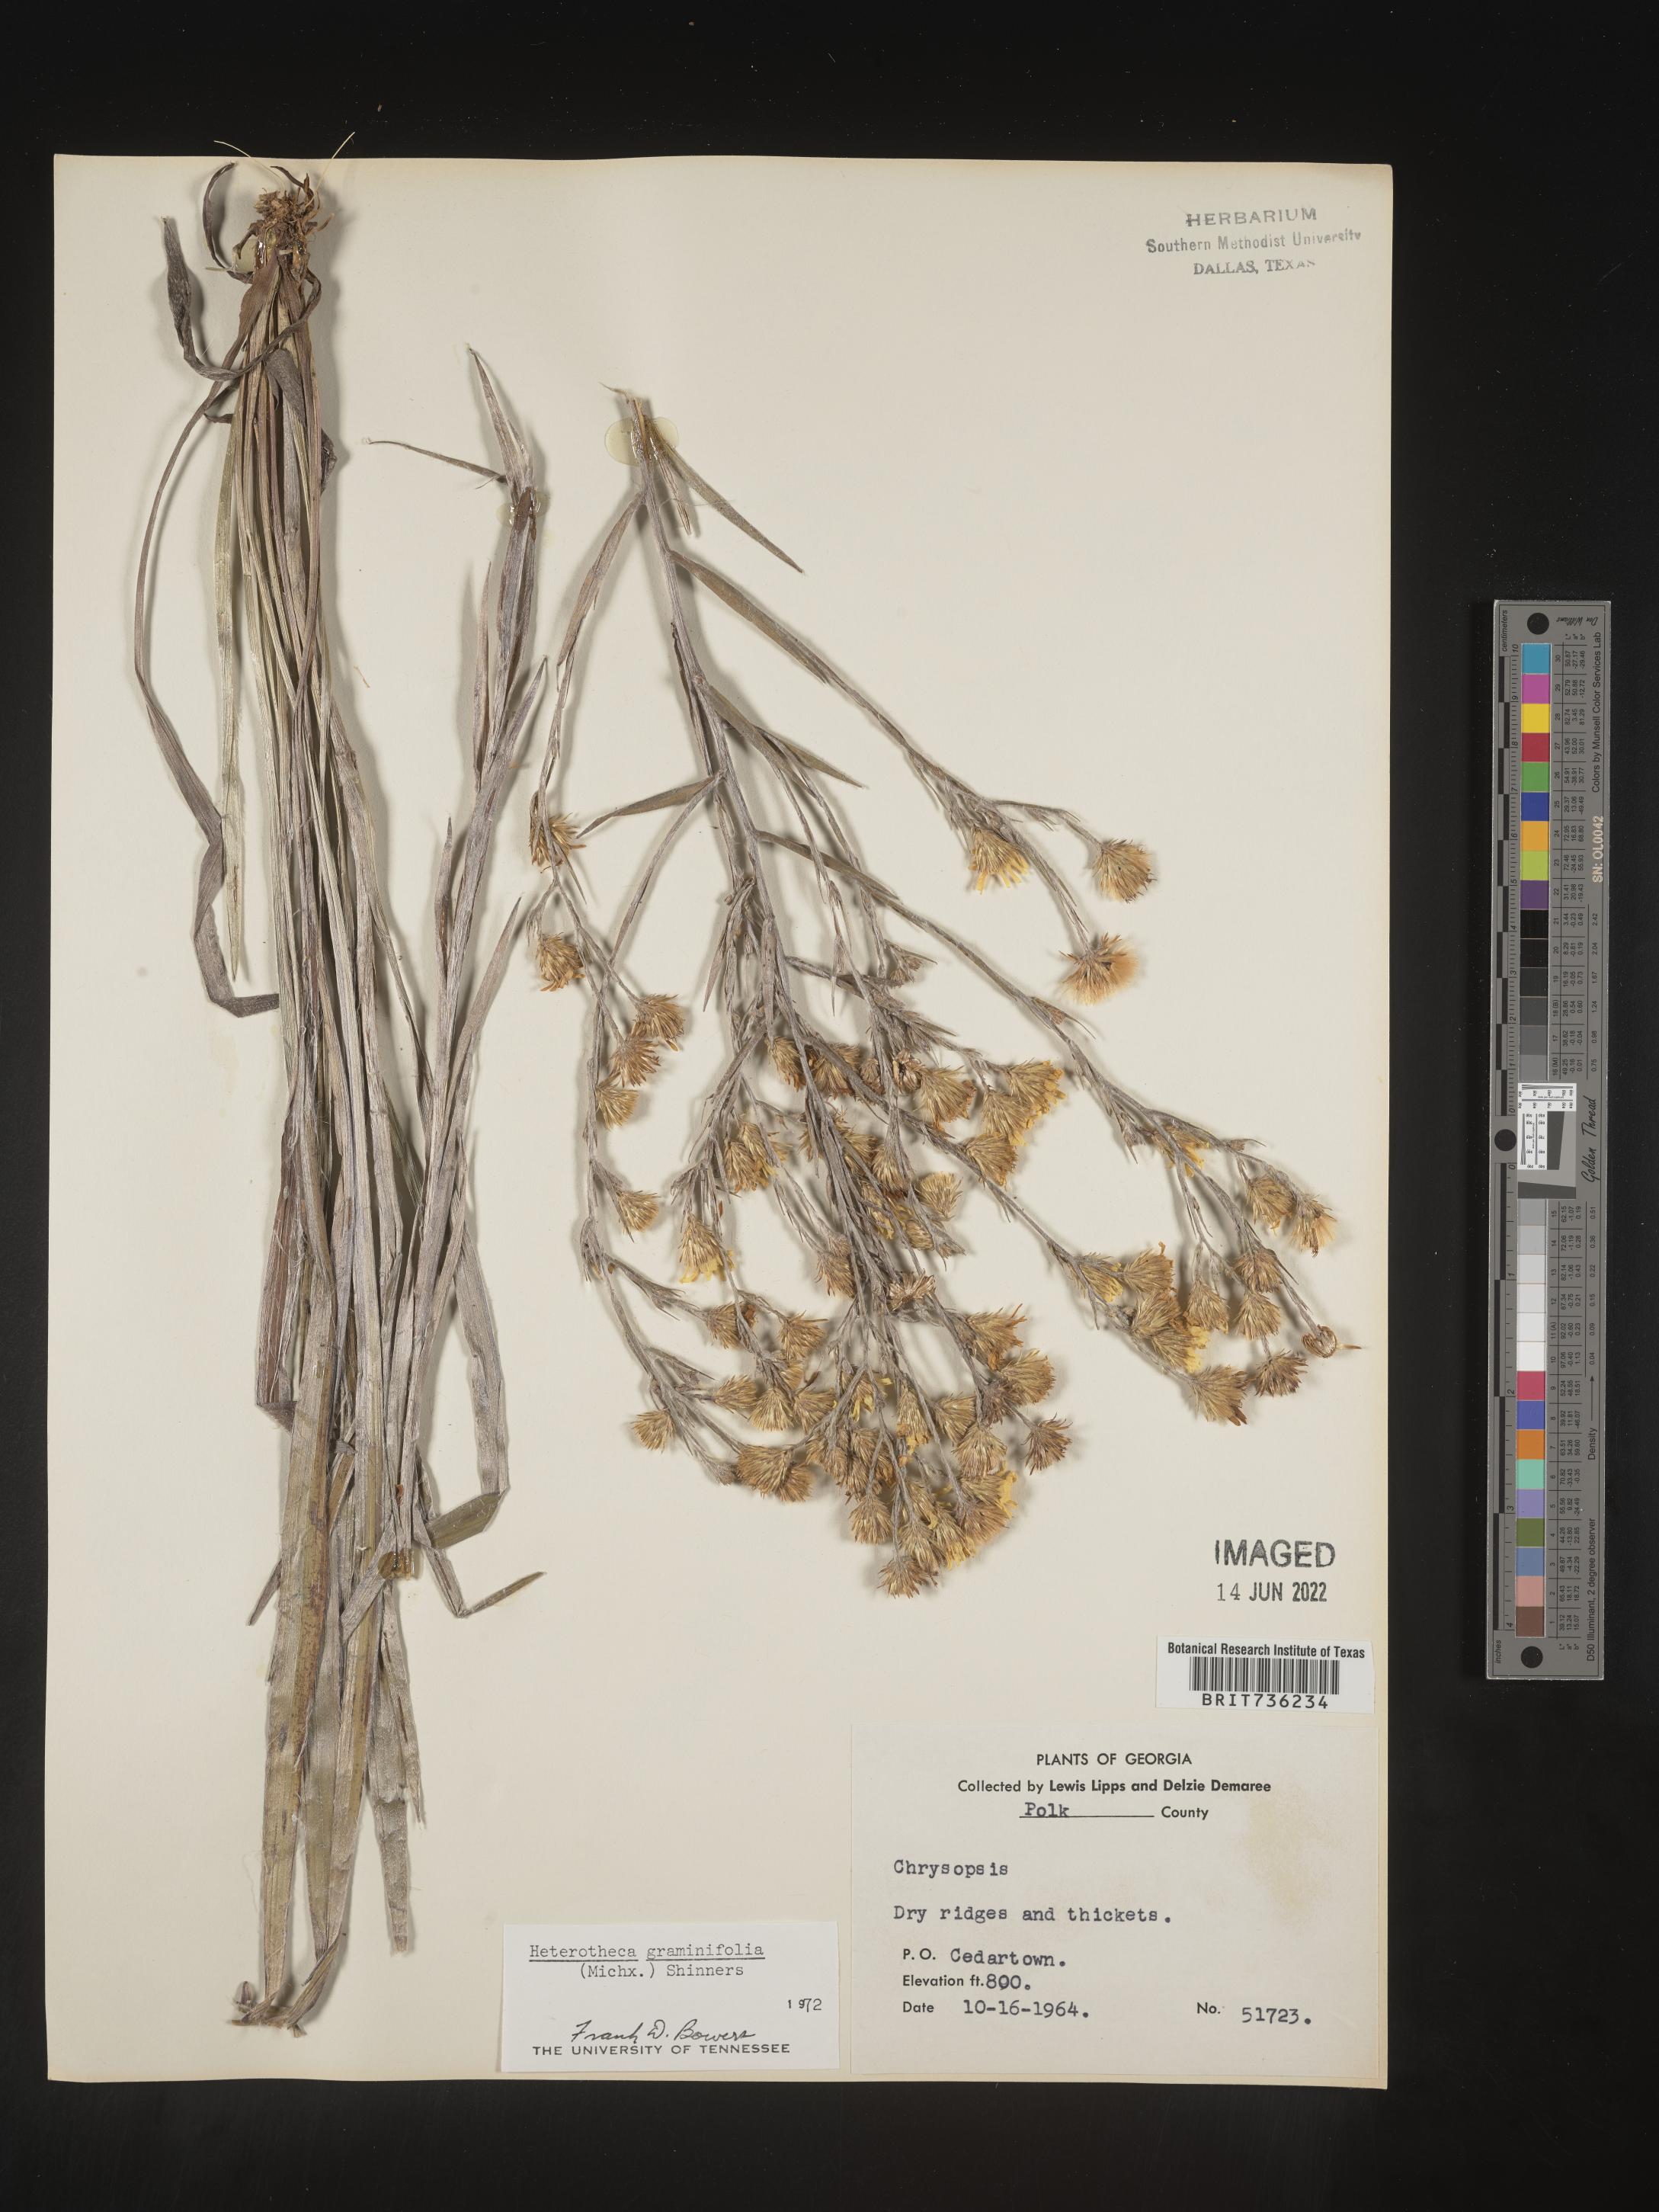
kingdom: Plantae
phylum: Tracheophyta
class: Magnoliopsida
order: Asterales
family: Asteraceae
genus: Pityopsis
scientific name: Pityopsis graminifolia
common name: Grass-leaf golden-aster
